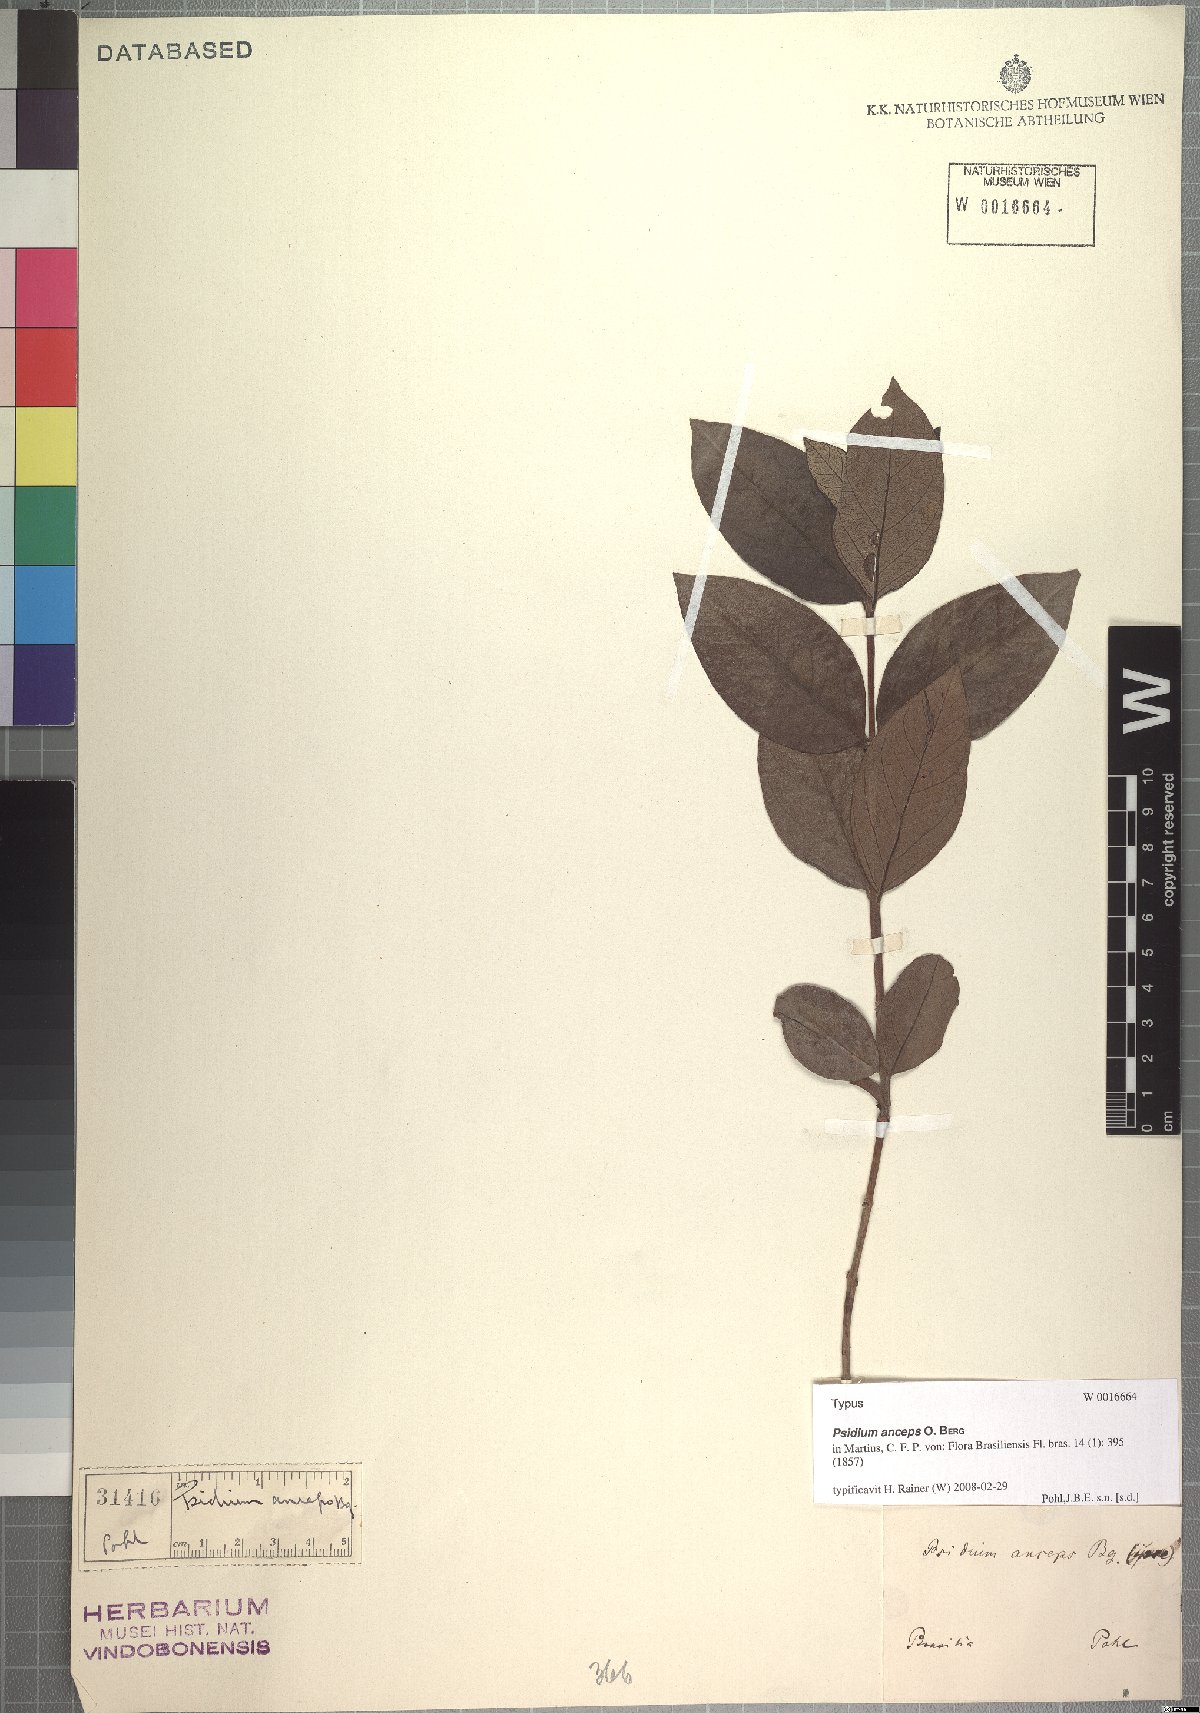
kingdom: Plantae
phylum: Tracheophyta
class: Magnoliopsida
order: Myrtales
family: Myrtaceae
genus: Psidium
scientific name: Psidium australe
